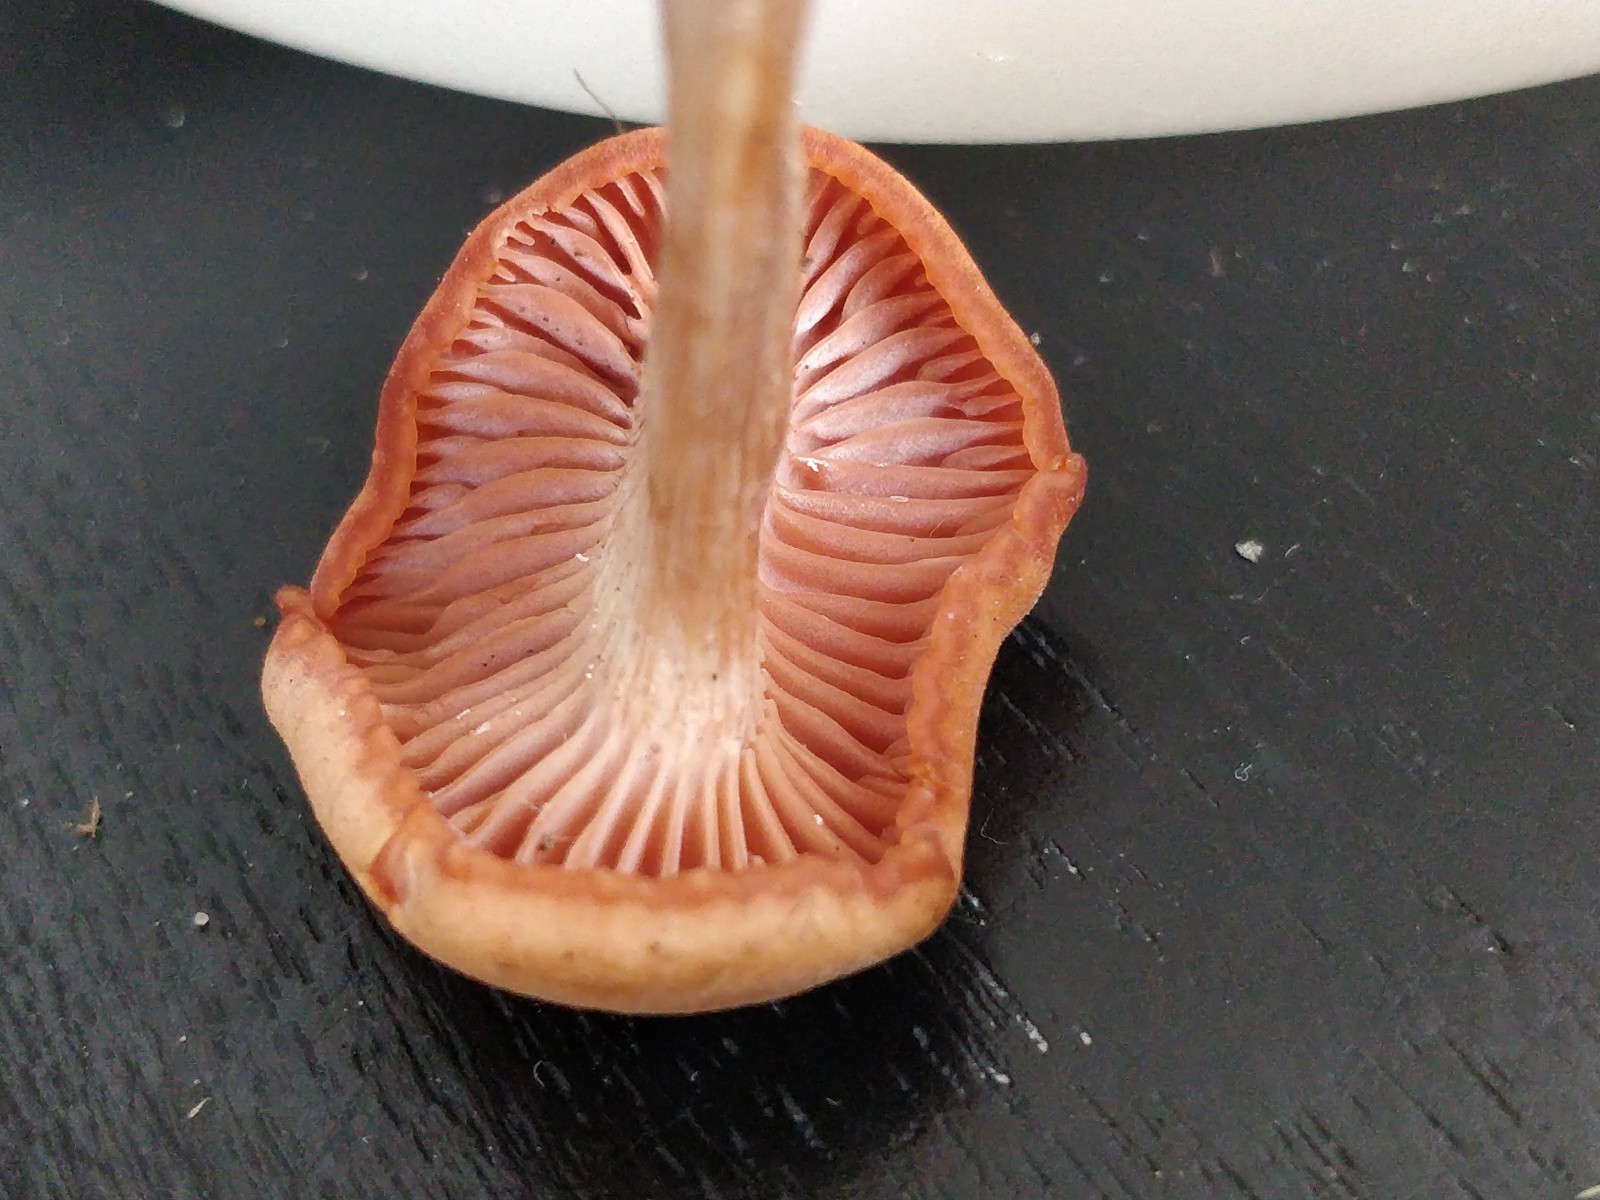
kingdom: Fungi
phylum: Basidiomycota
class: Agaricomycetes
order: Agaricales
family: Hydnangiaceae
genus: Laccaria
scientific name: Laccaria laccata
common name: rød ametysthat
